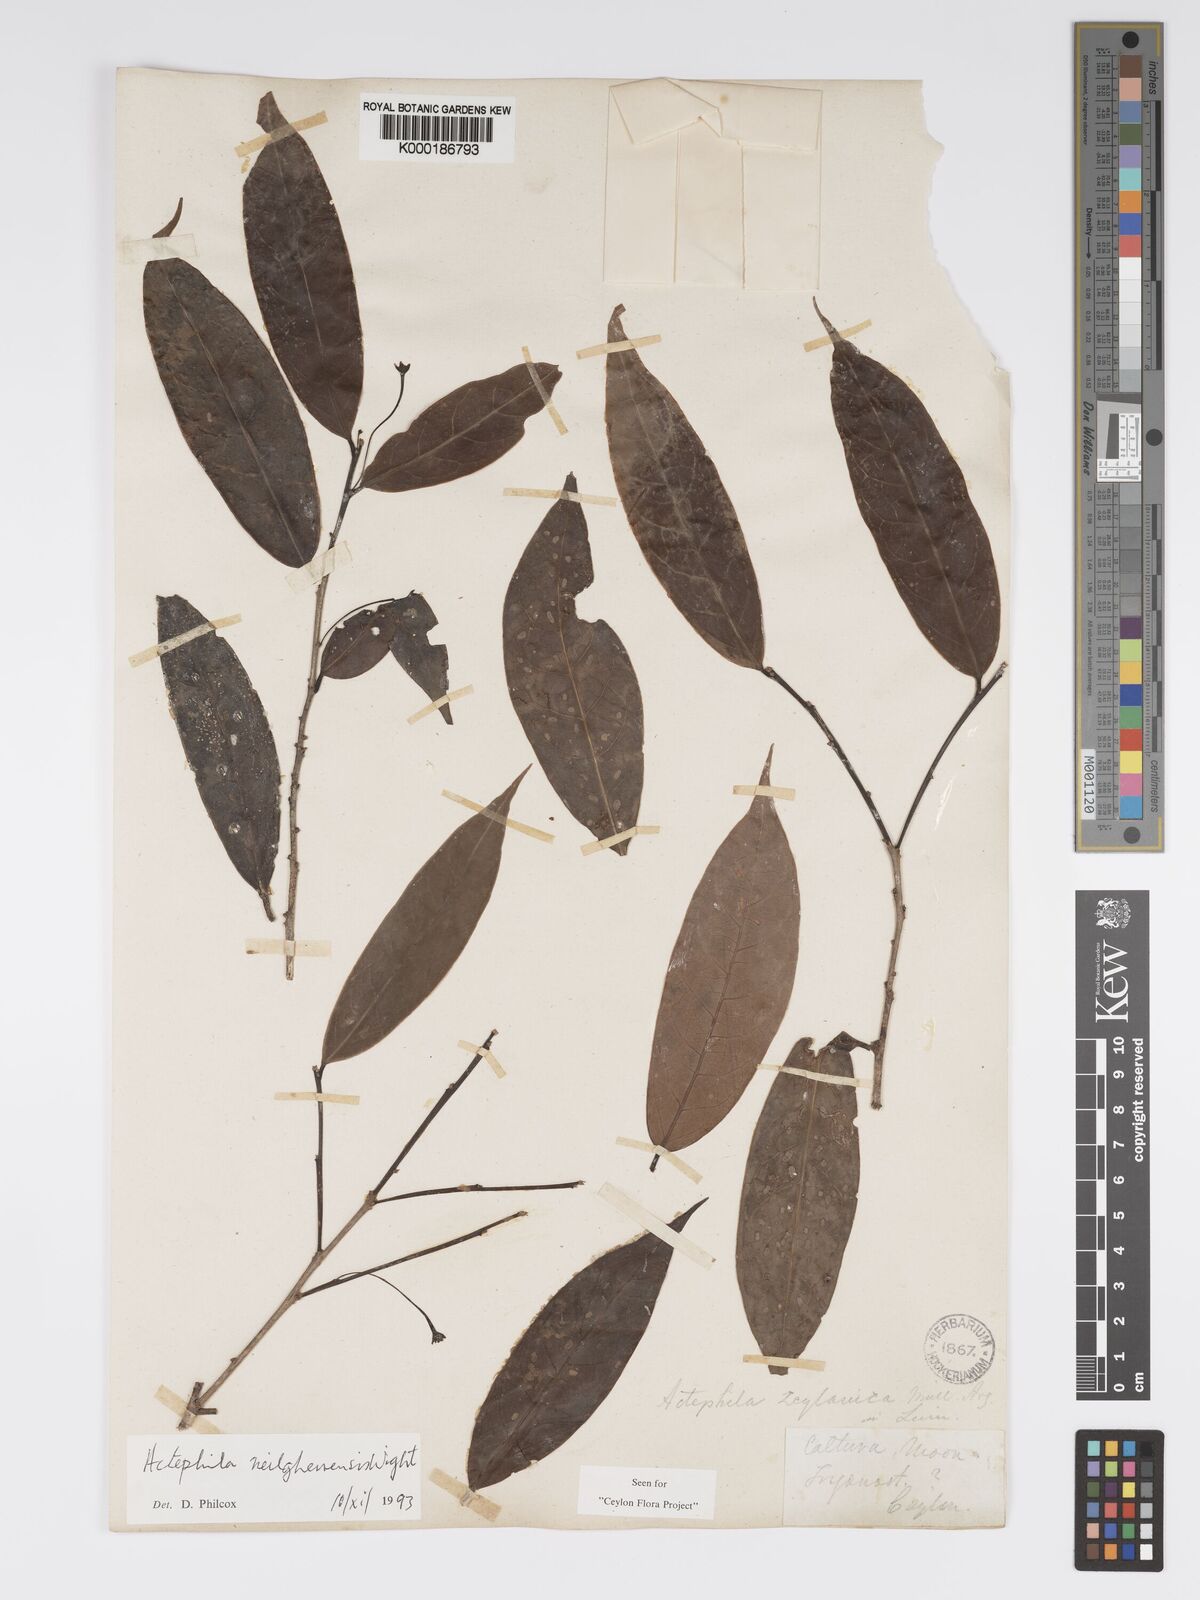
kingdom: Plantae
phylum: Tracheophyta
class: Magnoliopsida
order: Malpighiales
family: Phyllanthaceae
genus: Actephila
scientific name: Actephila excelsa
